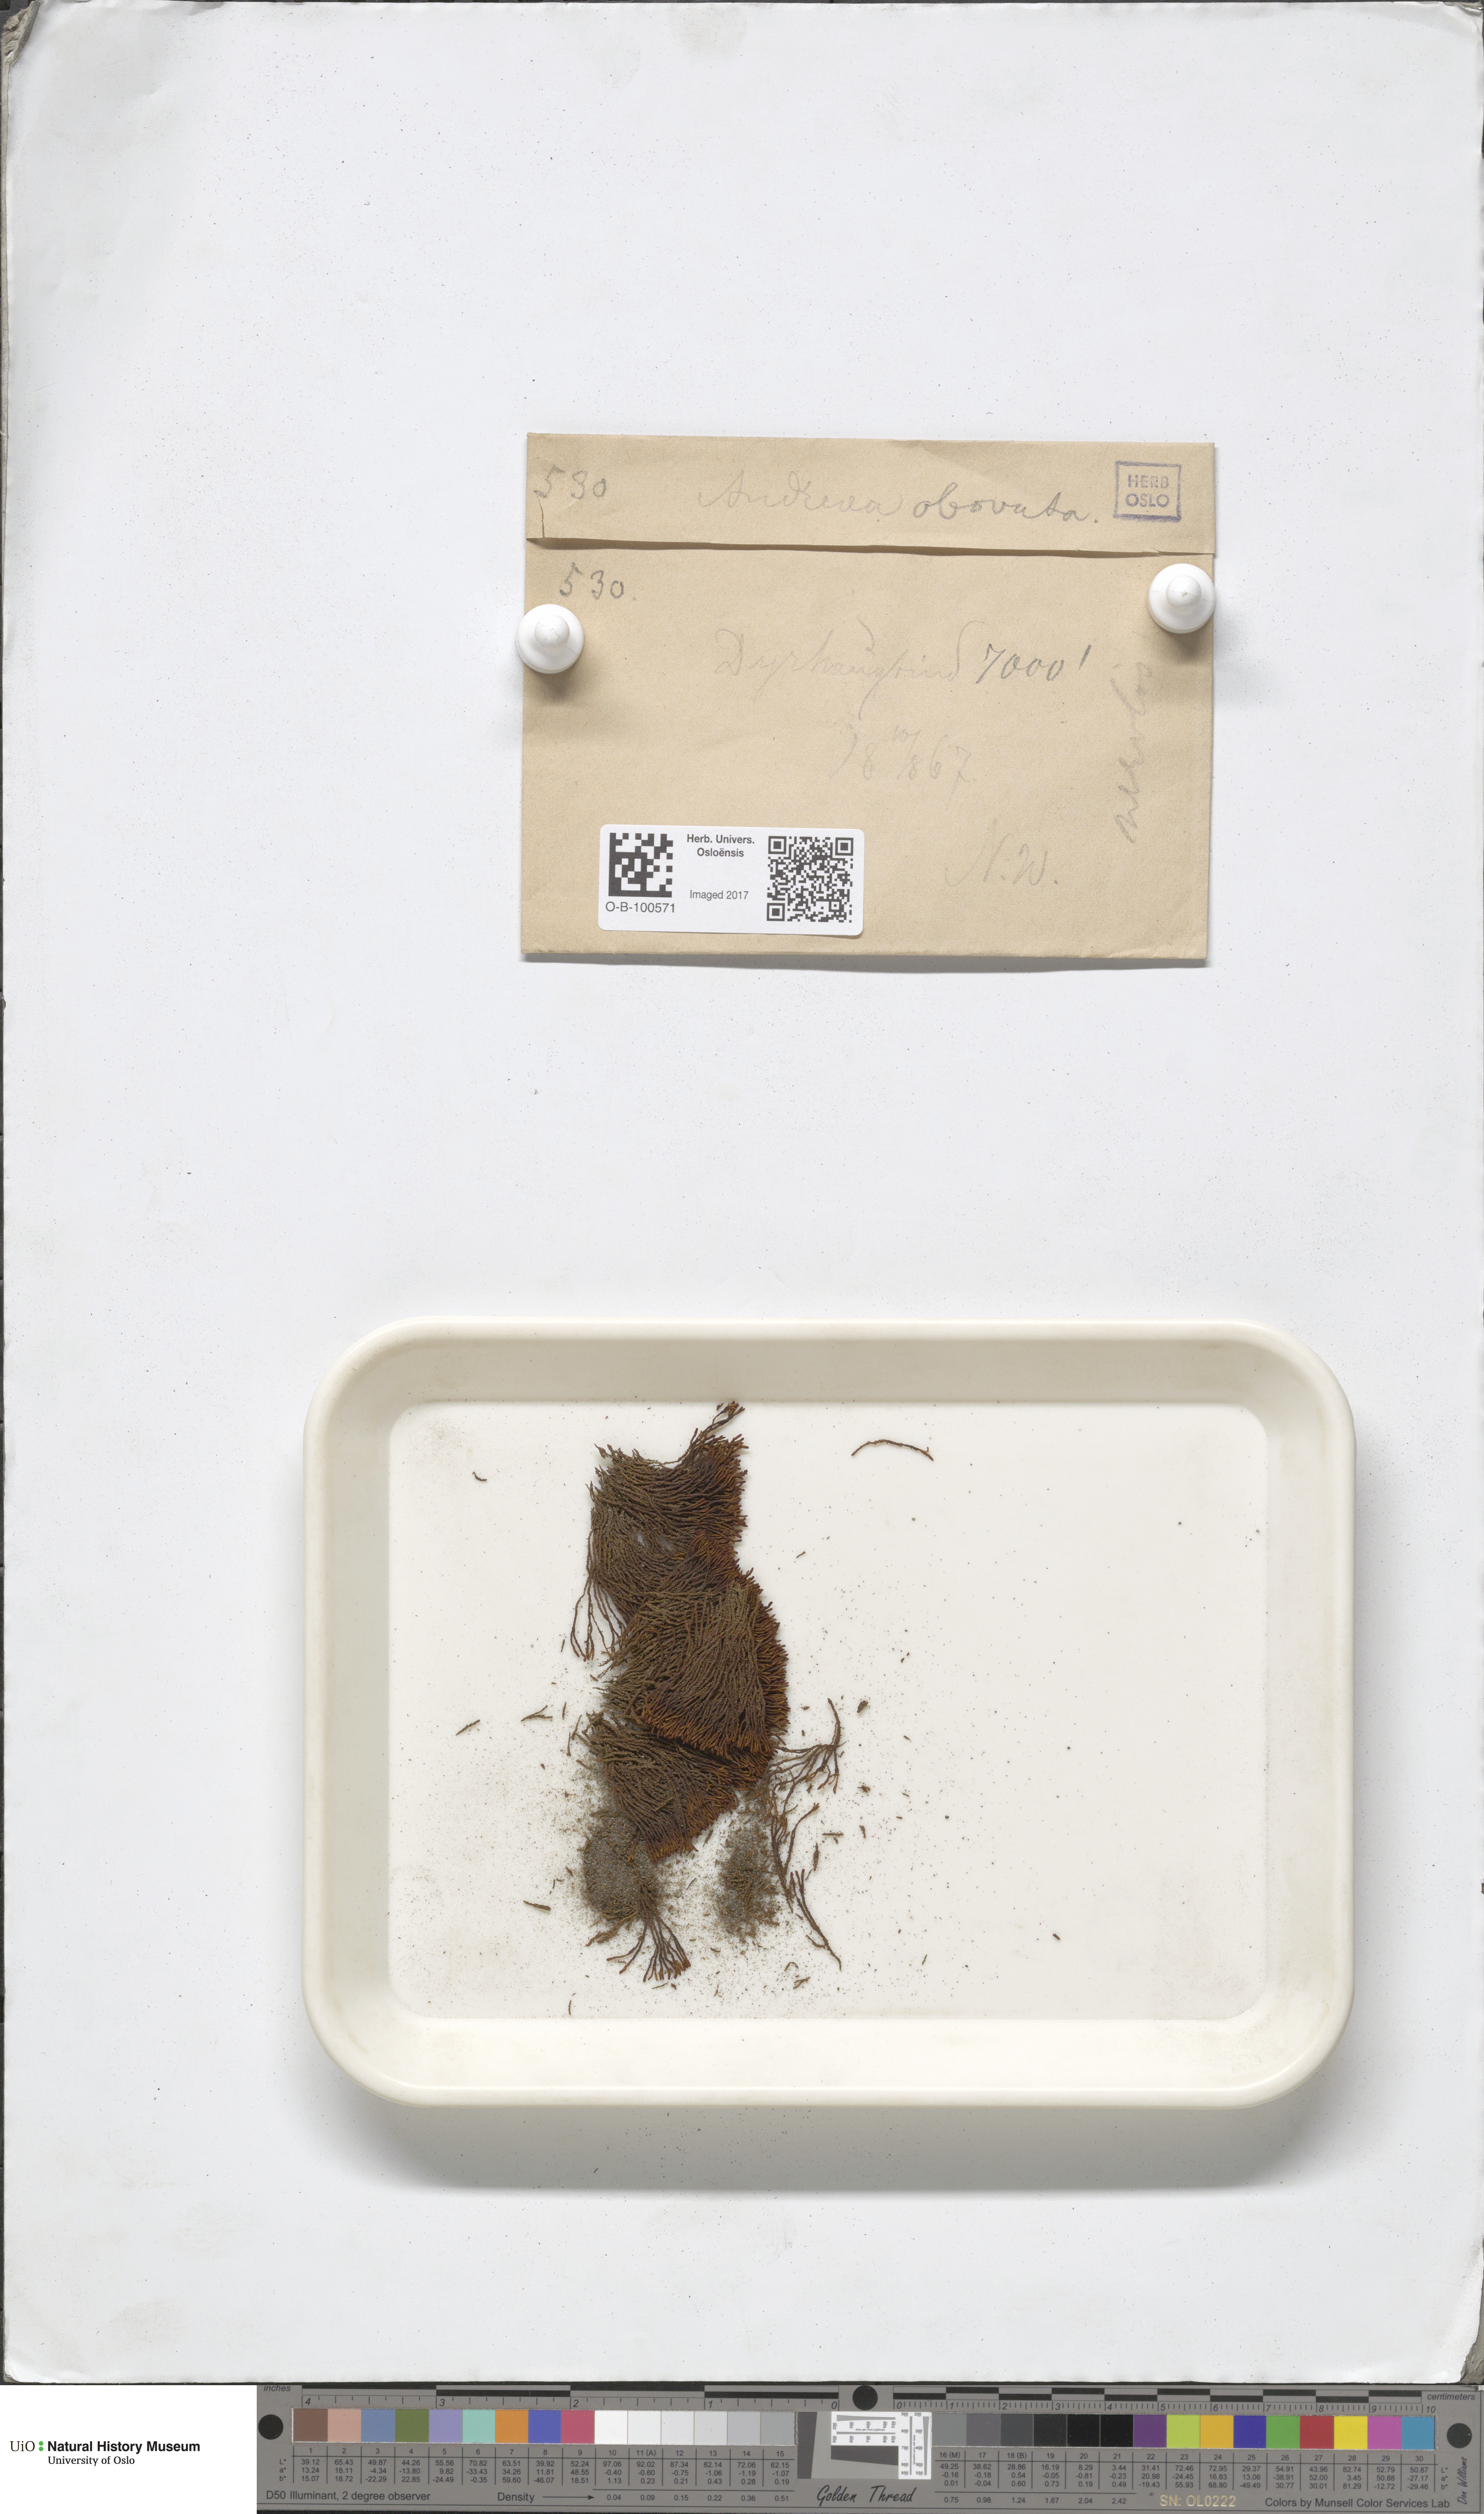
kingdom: Plantae
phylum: Bryophyta
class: Andreaeopsida
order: Andreaeales
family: Andreaeaceae
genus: Andreaea
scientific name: Andreaea alpina
